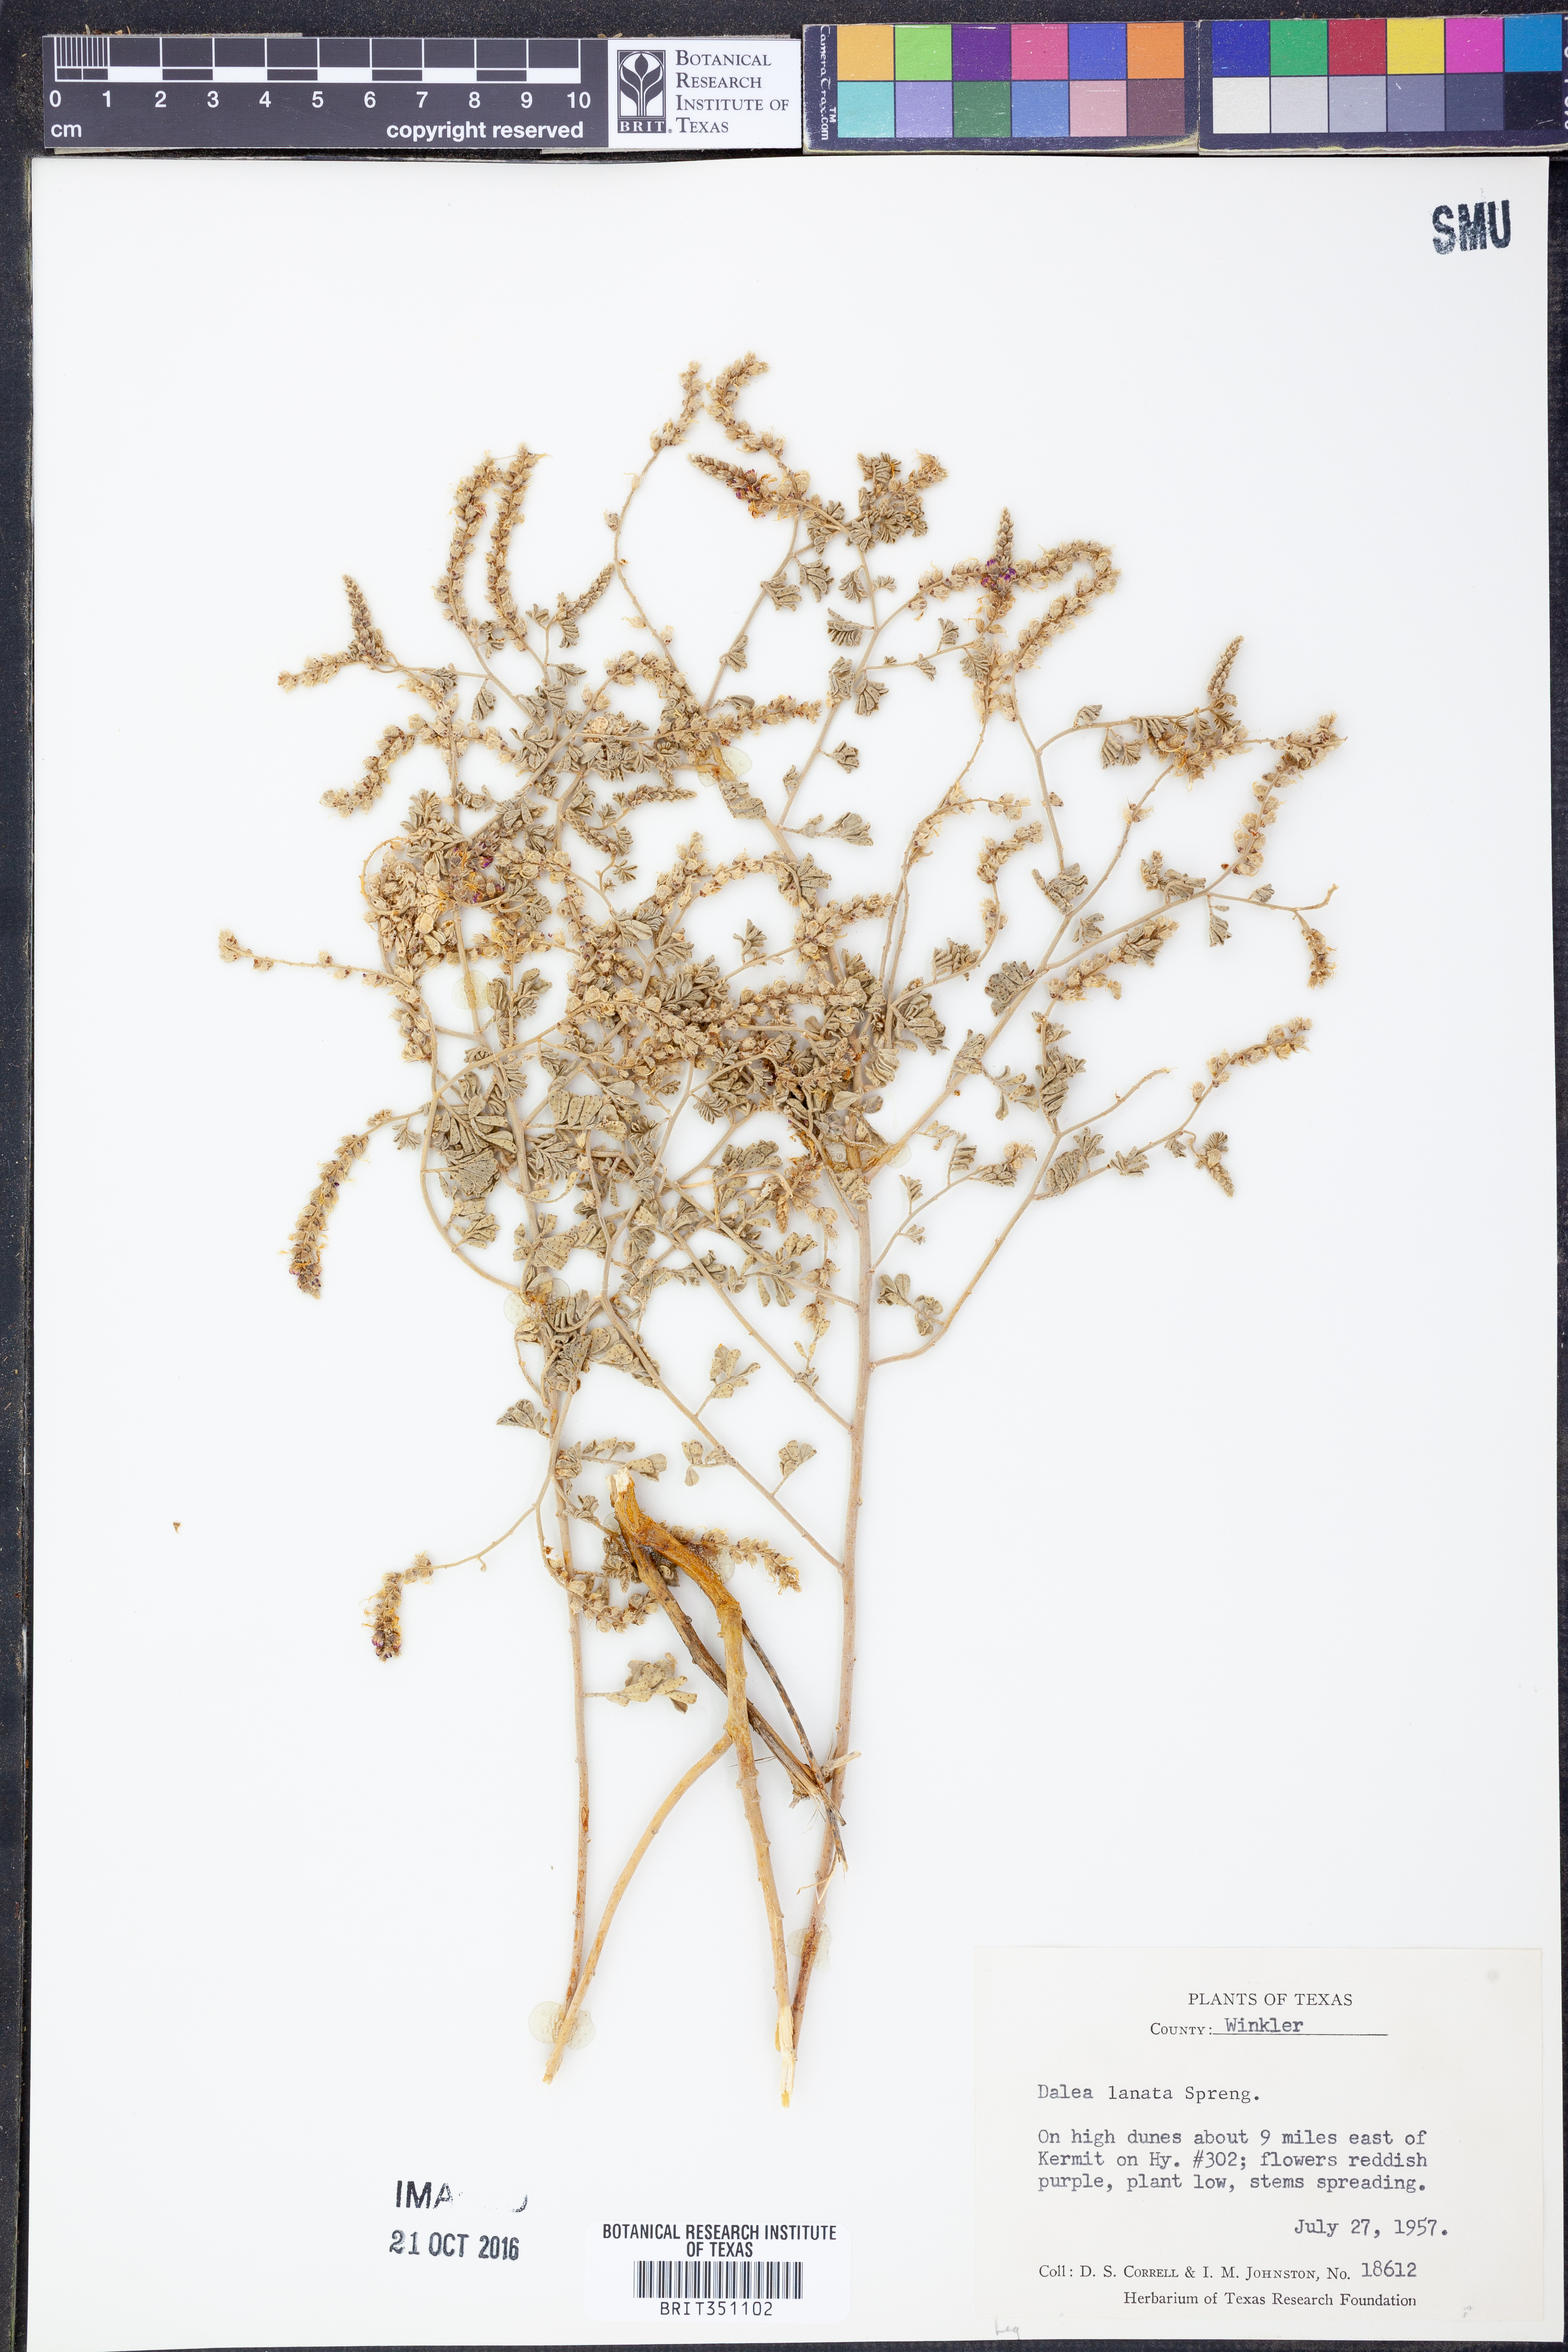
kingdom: Plantae
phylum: Tracheophyta
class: Magnoliopsida
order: Fabales
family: Fabaceae
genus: Dalea
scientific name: Dalea lanata
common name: Woolly dalea
